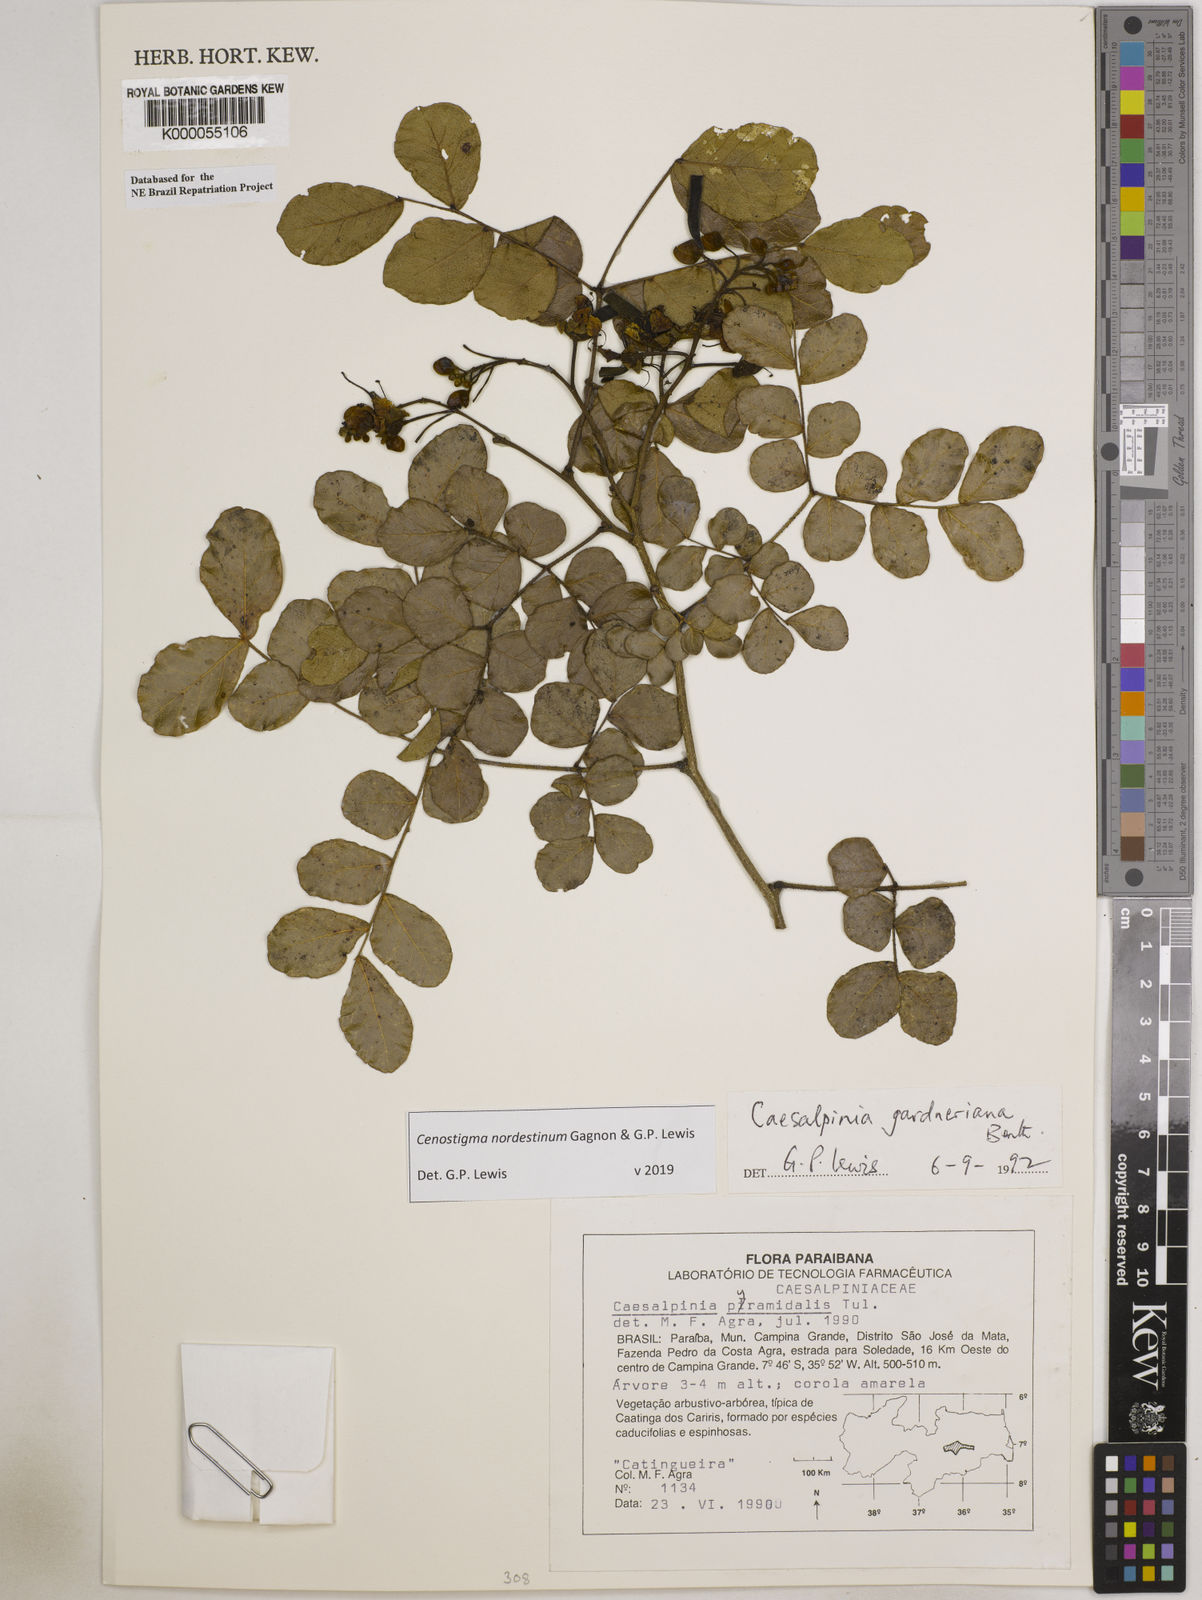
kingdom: Plantae
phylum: Tracheophyta
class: Magnoliopsida
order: Fabales
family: Fabaceae
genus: Cenostigma
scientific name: Cenostigma nordestinum
